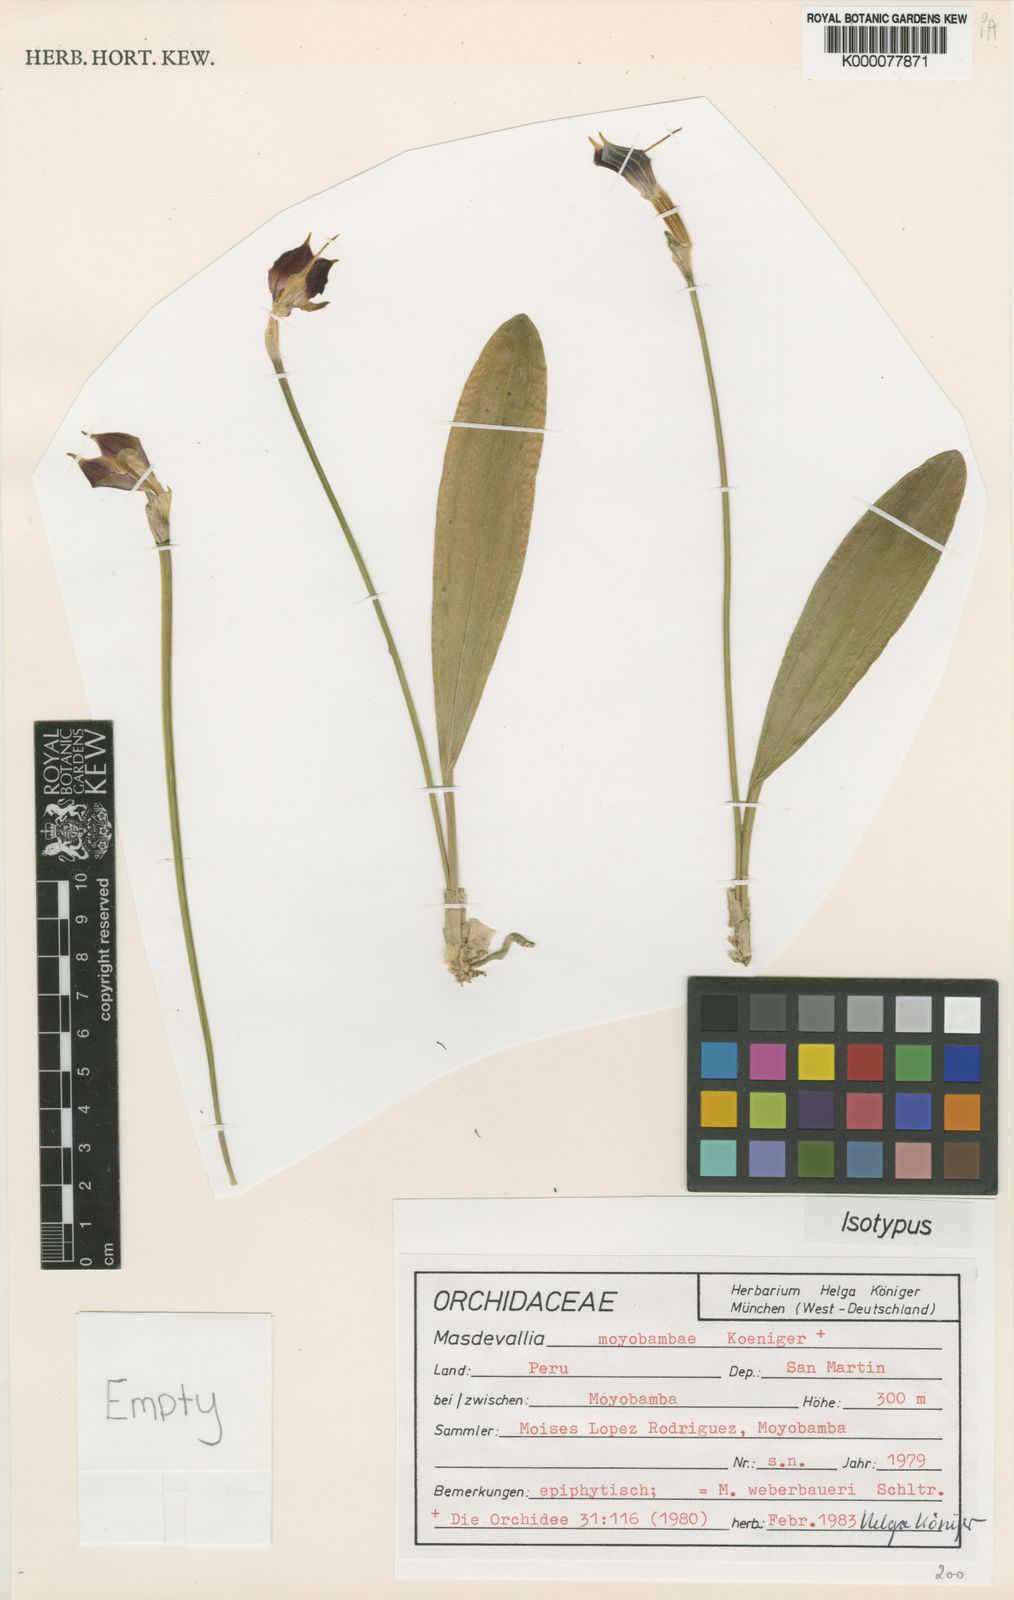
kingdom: Plantae
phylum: Tracheophyta
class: Liliopsida
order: Asparagales
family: Orchidaceae
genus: Masdevallia
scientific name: Masdevallia weberbaueri
